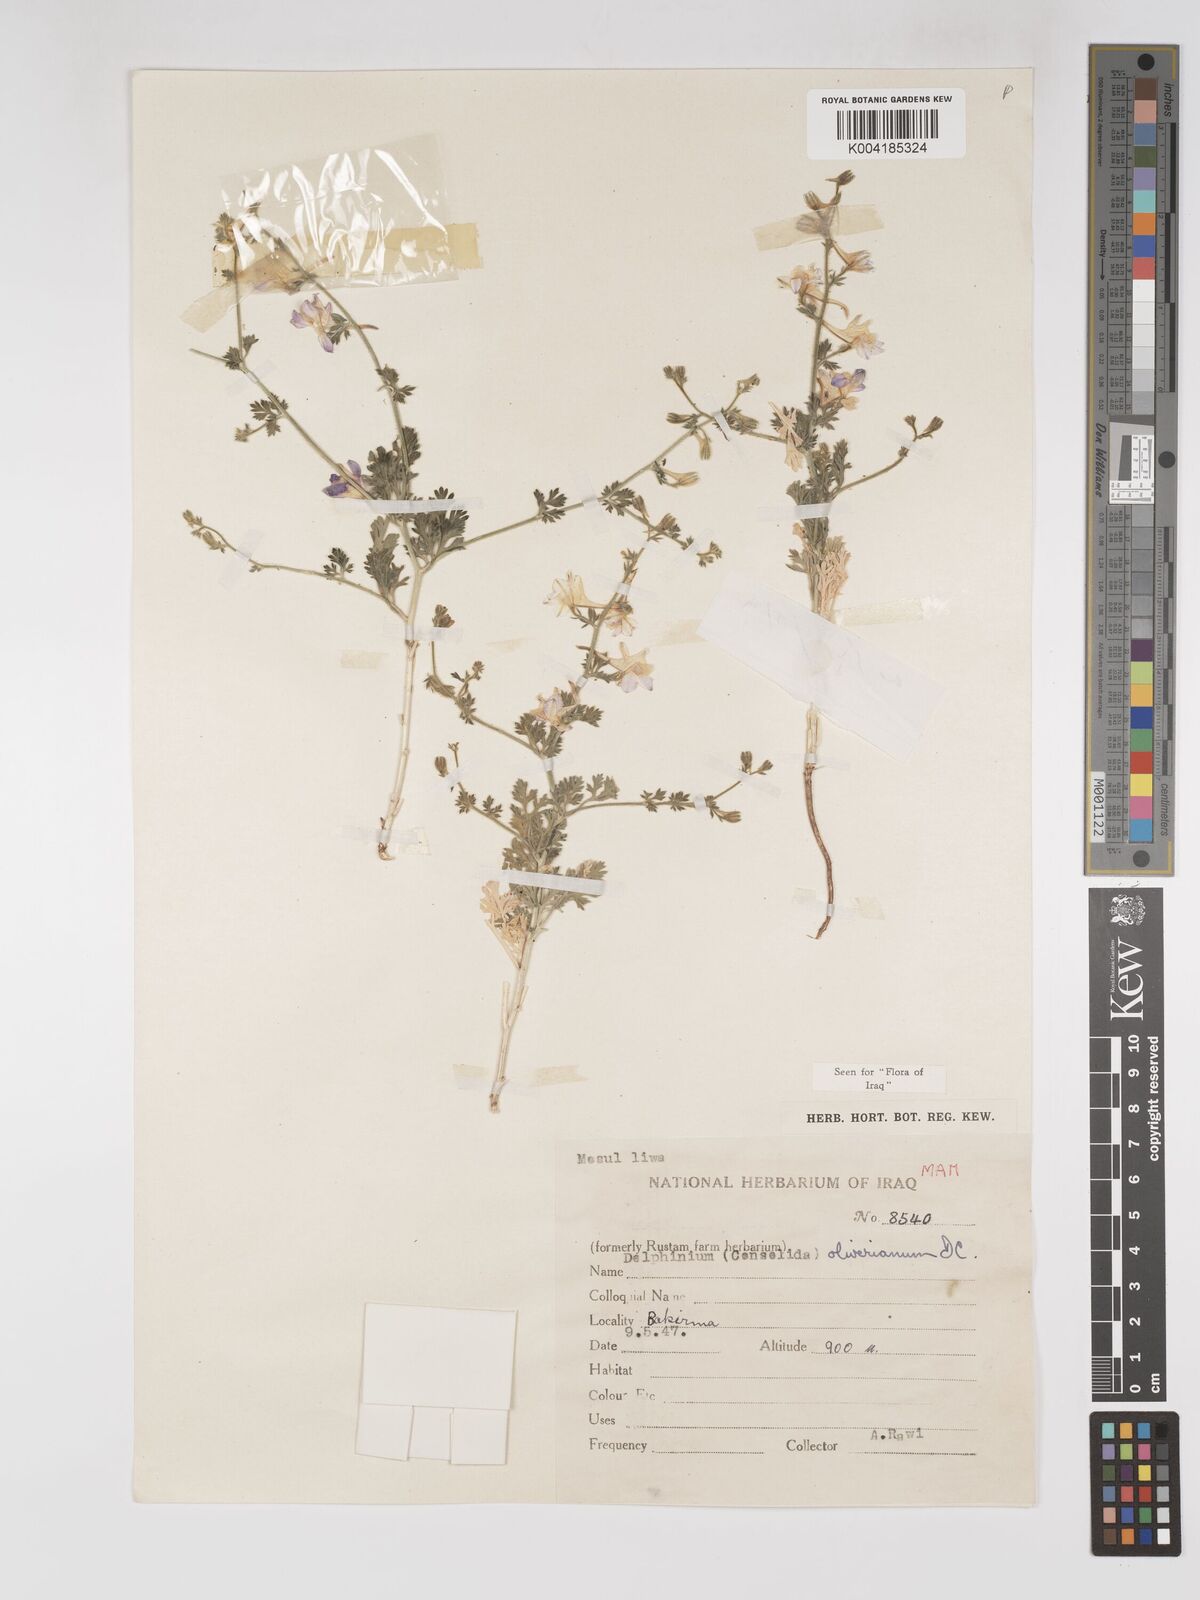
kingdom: Plantae
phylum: Tracheophyta
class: Magnoliopsida
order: Ranunculales
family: Ranunculaceae
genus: Delphinium
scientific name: Delphinium oliverianum
